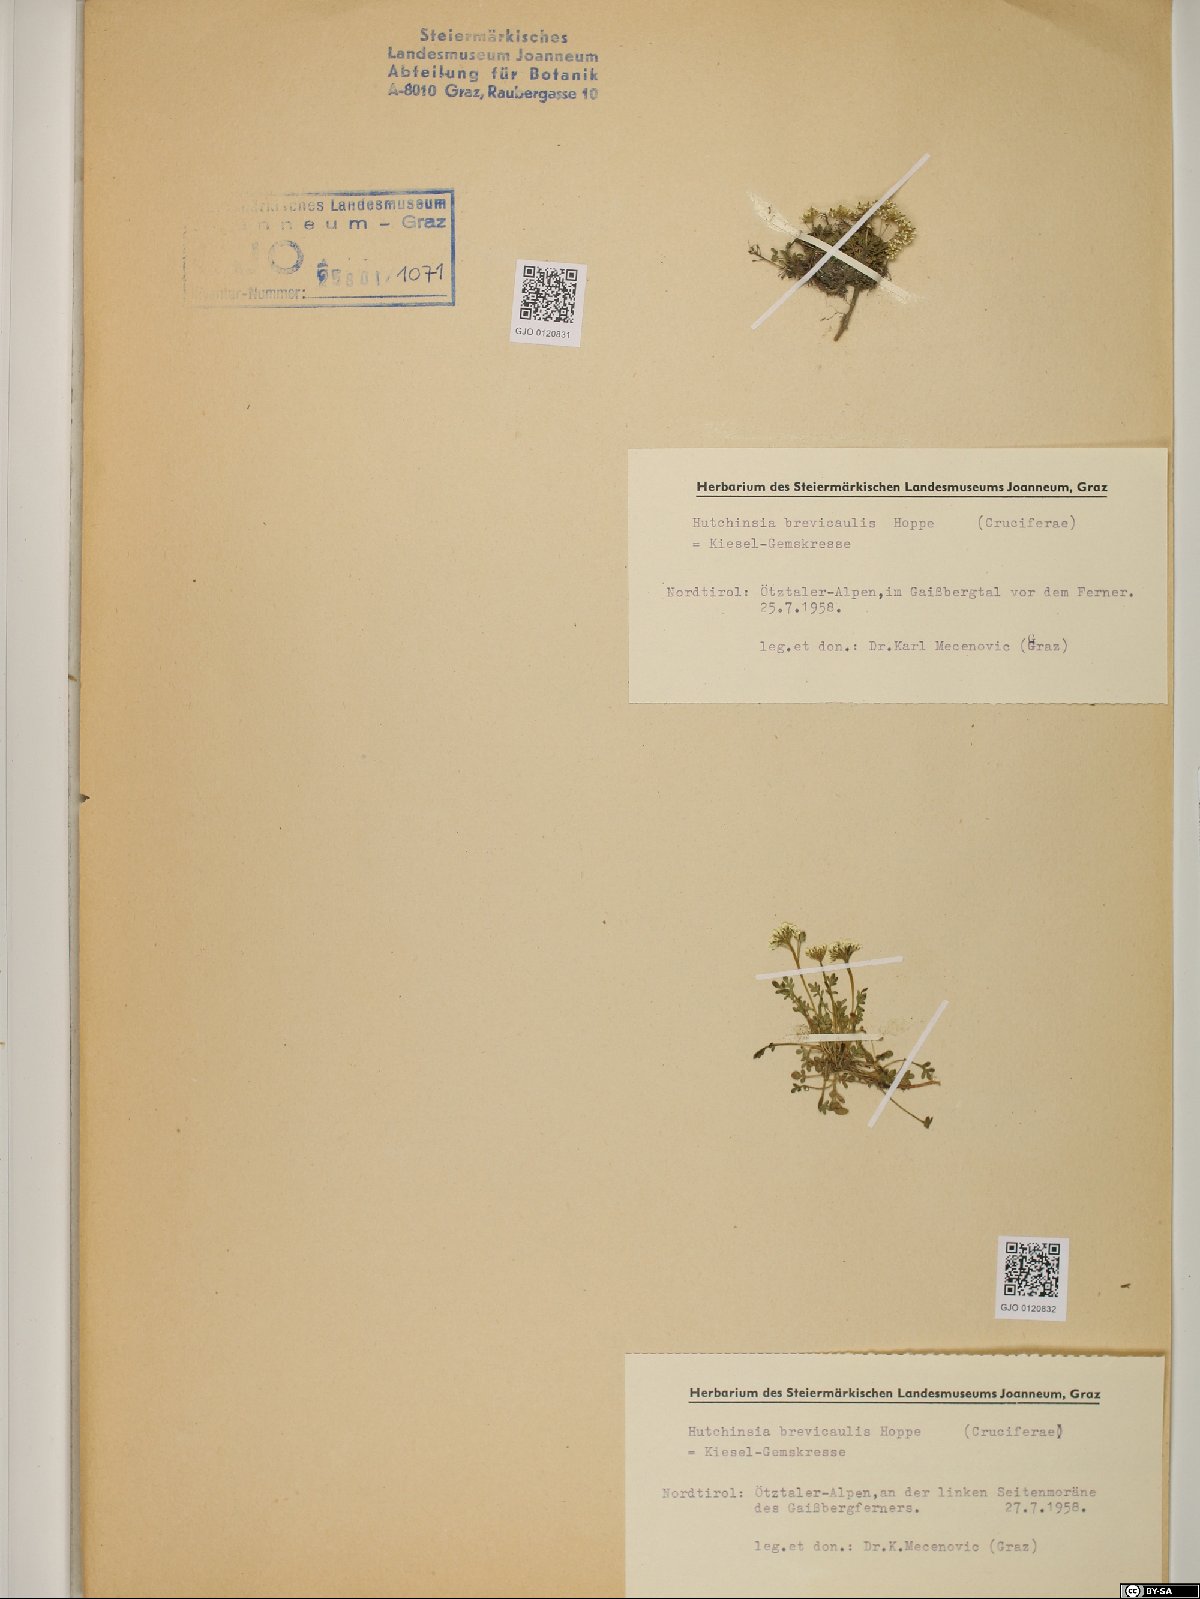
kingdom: Plantae
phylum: Tracheophyta
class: Magnoliopsida
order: Brassicales
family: Brassicaceae
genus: Hornungia
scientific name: Hornungia alpina
